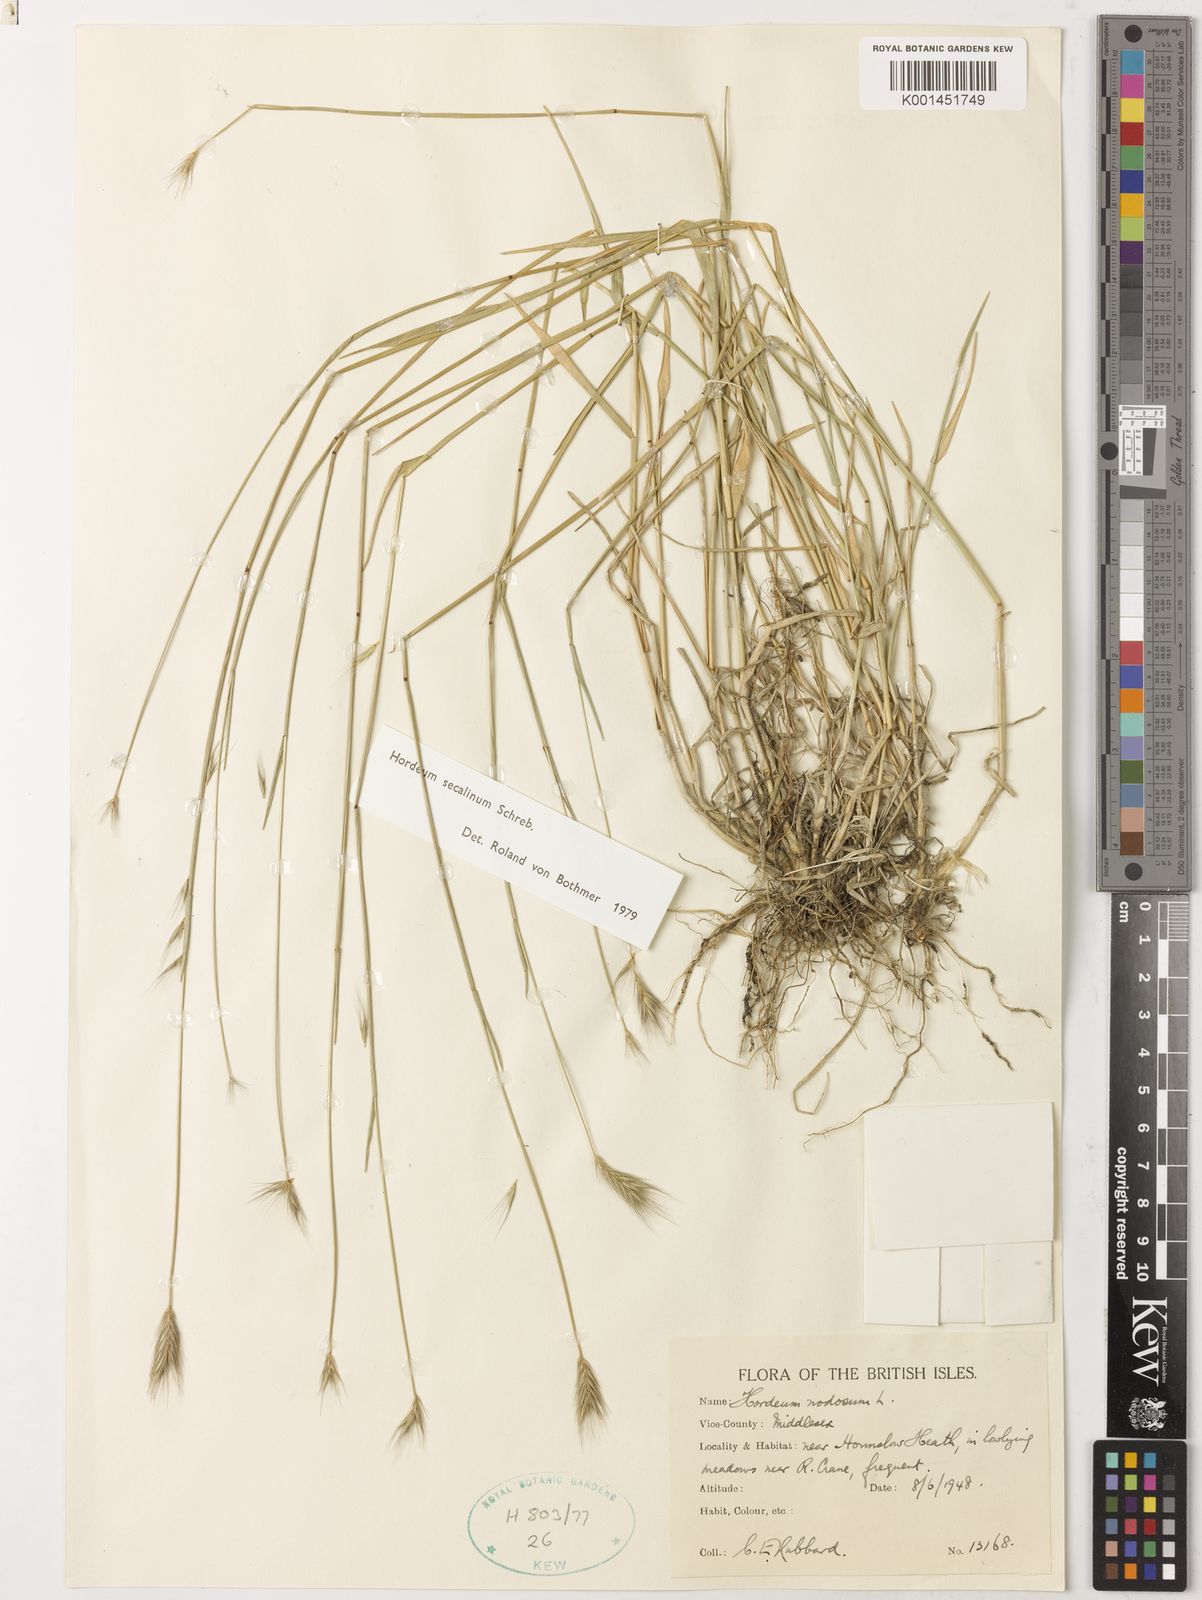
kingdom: Plantae
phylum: Tracheophyta
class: Liliopsida
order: Poales
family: Poaceae
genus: Hordeum
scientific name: Hordeum secalinum
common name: Meadow barley
